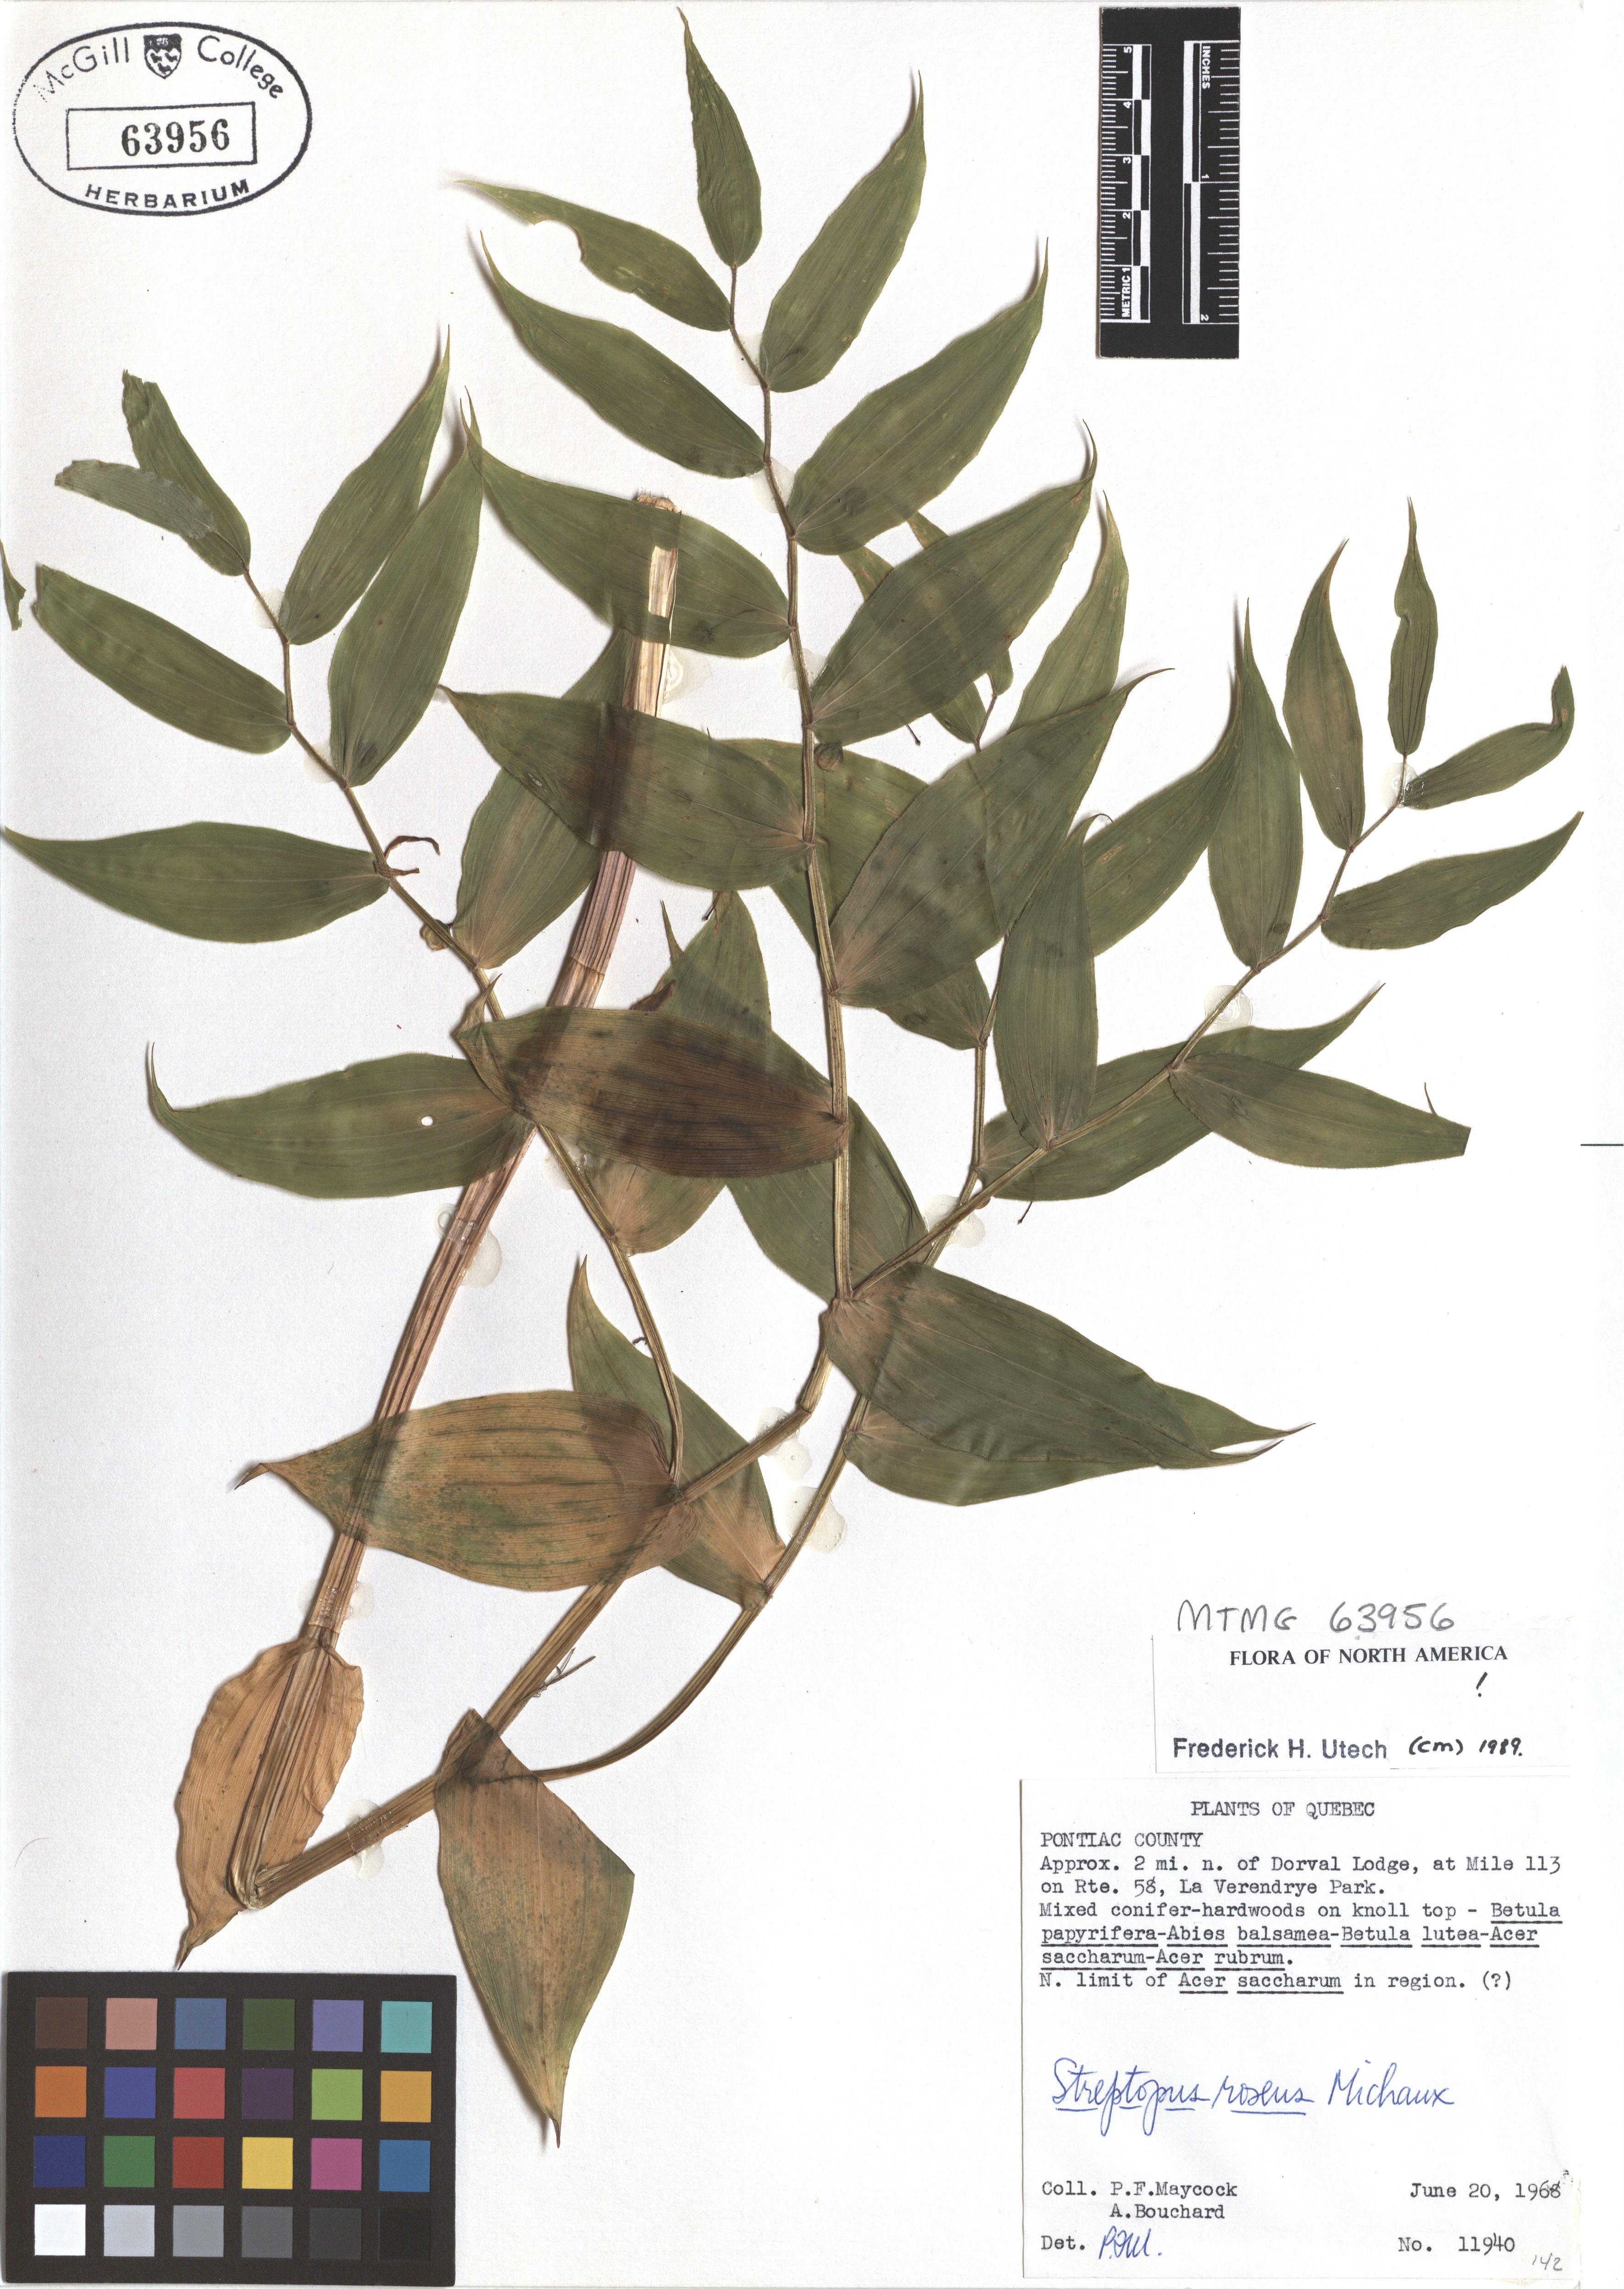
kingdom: Plantae
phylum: Tracheophyta
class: Liliopsida
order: Liliales
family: Liliaceae
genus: Streptopus
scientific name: Streptopus lanceolatus
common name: Rose mandarin
